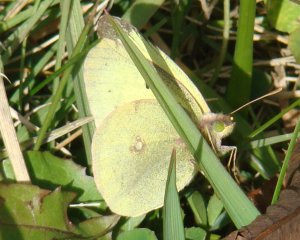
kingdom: Animalia
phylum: Arthropoda
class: Insecta
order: Lepidoptera
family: Pieridae
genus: Colias
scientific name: Colias philodice
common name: Clouded Sulphur
